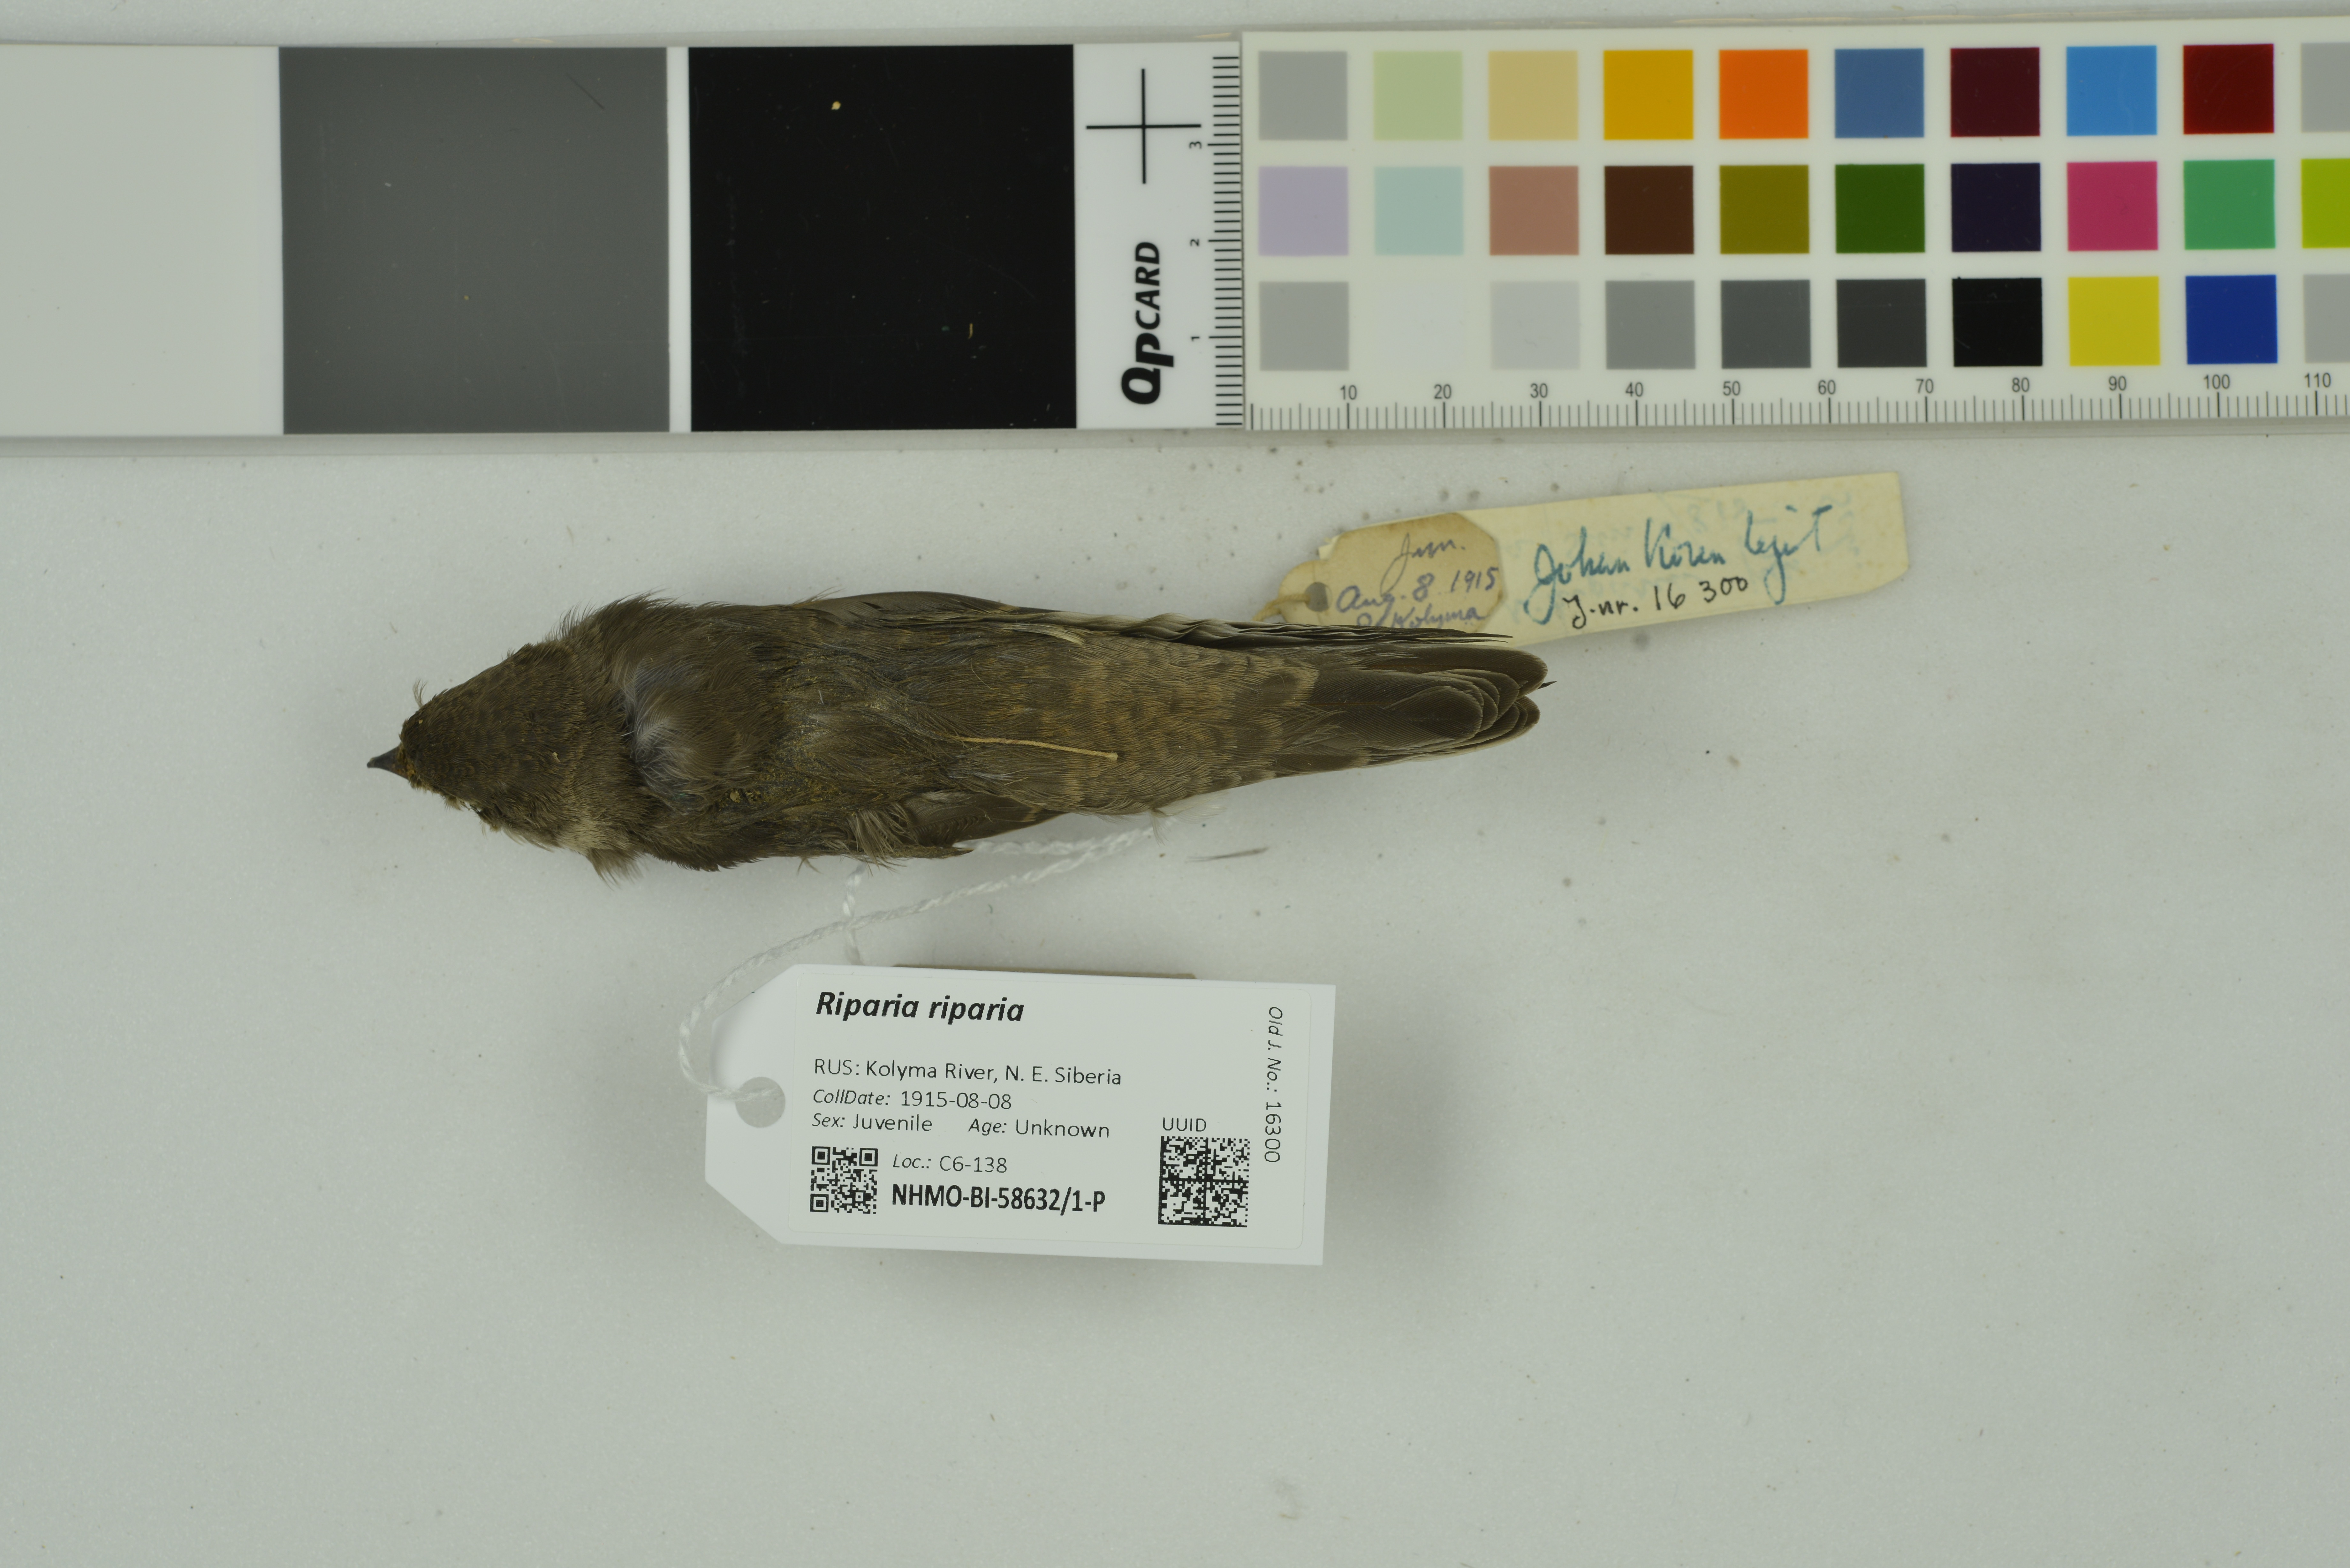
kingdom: Animalia
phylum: Chordata
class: Aves
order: Passeriformes
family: Hirundinidae
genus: Riparia
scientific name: Riparia riparia
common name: Sand martin
